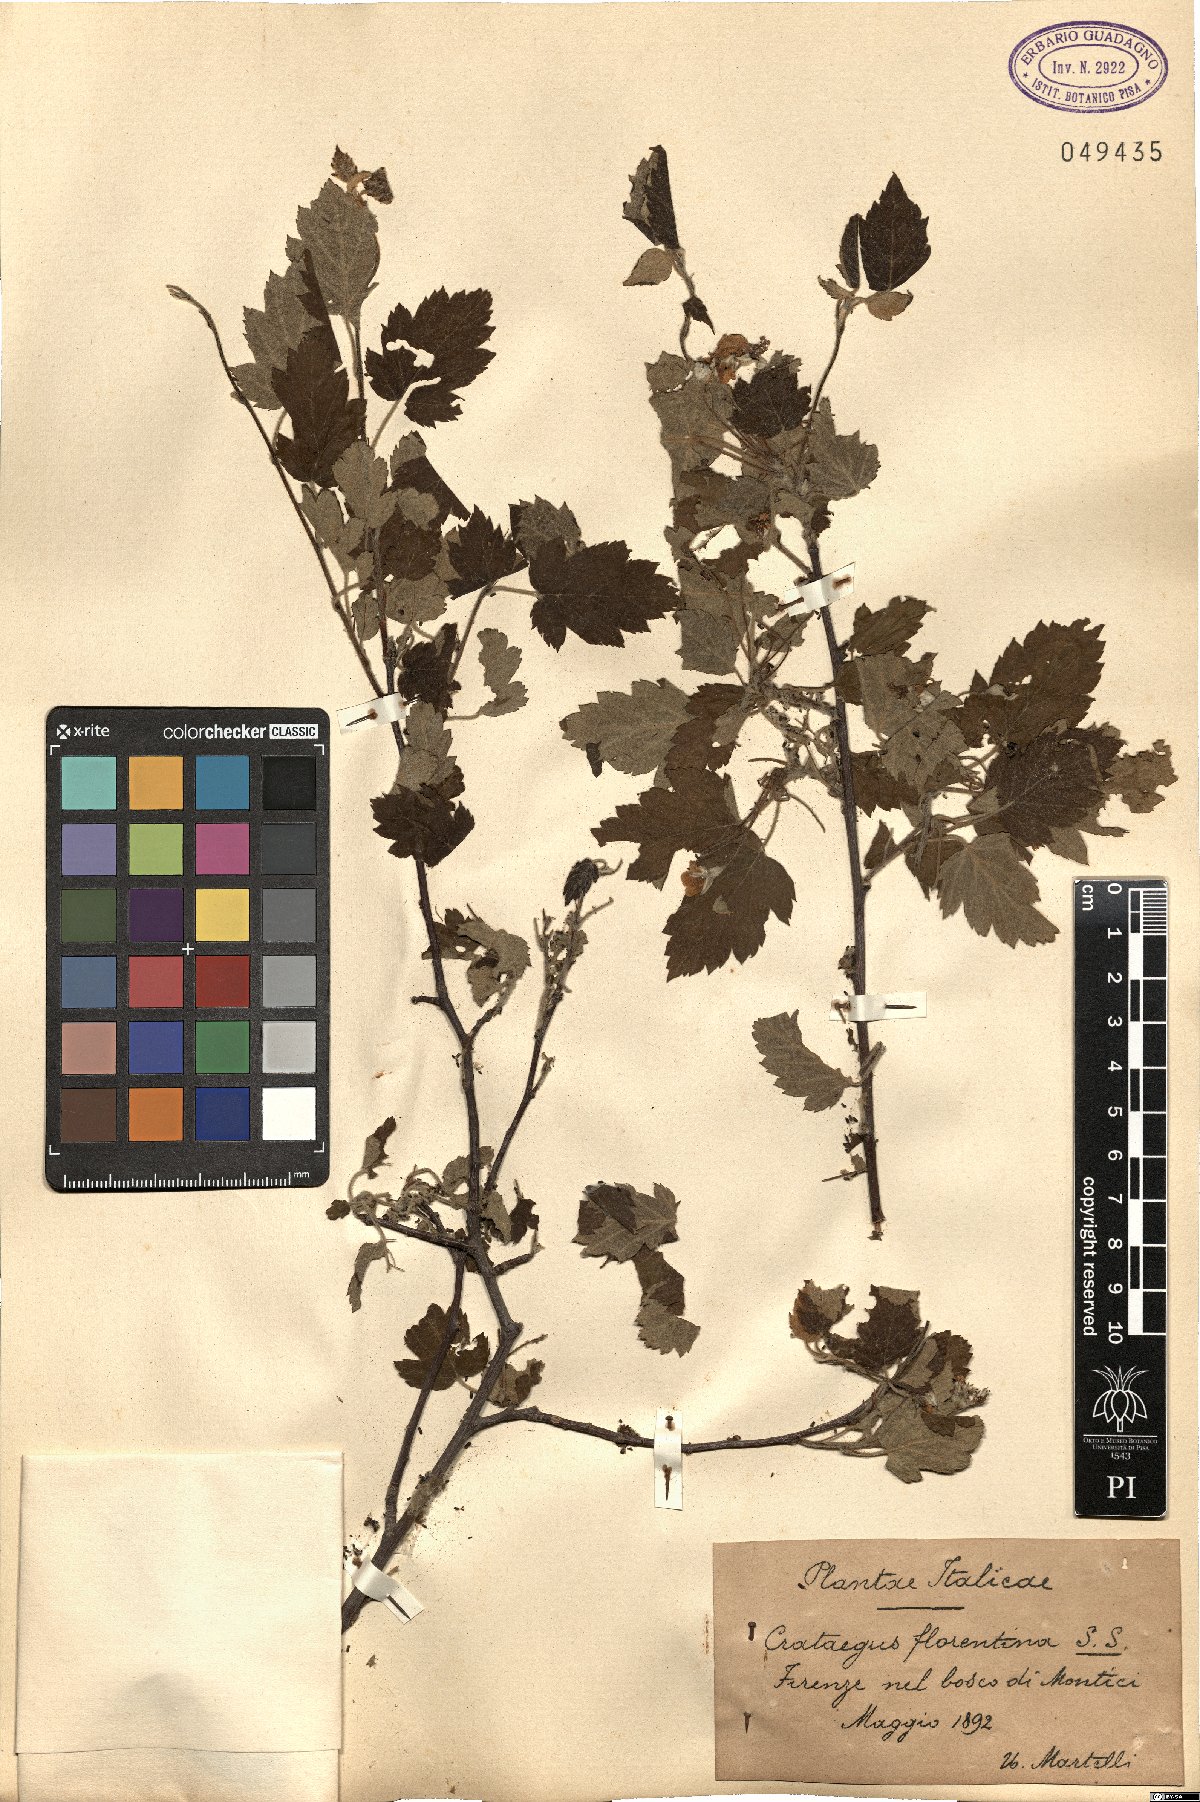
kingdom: Plantae
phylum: Tracheophyta
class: Magnoliopsida
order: Rosales
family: Rosaceae
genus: Tormimalus
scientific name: Tormimalus florentina
